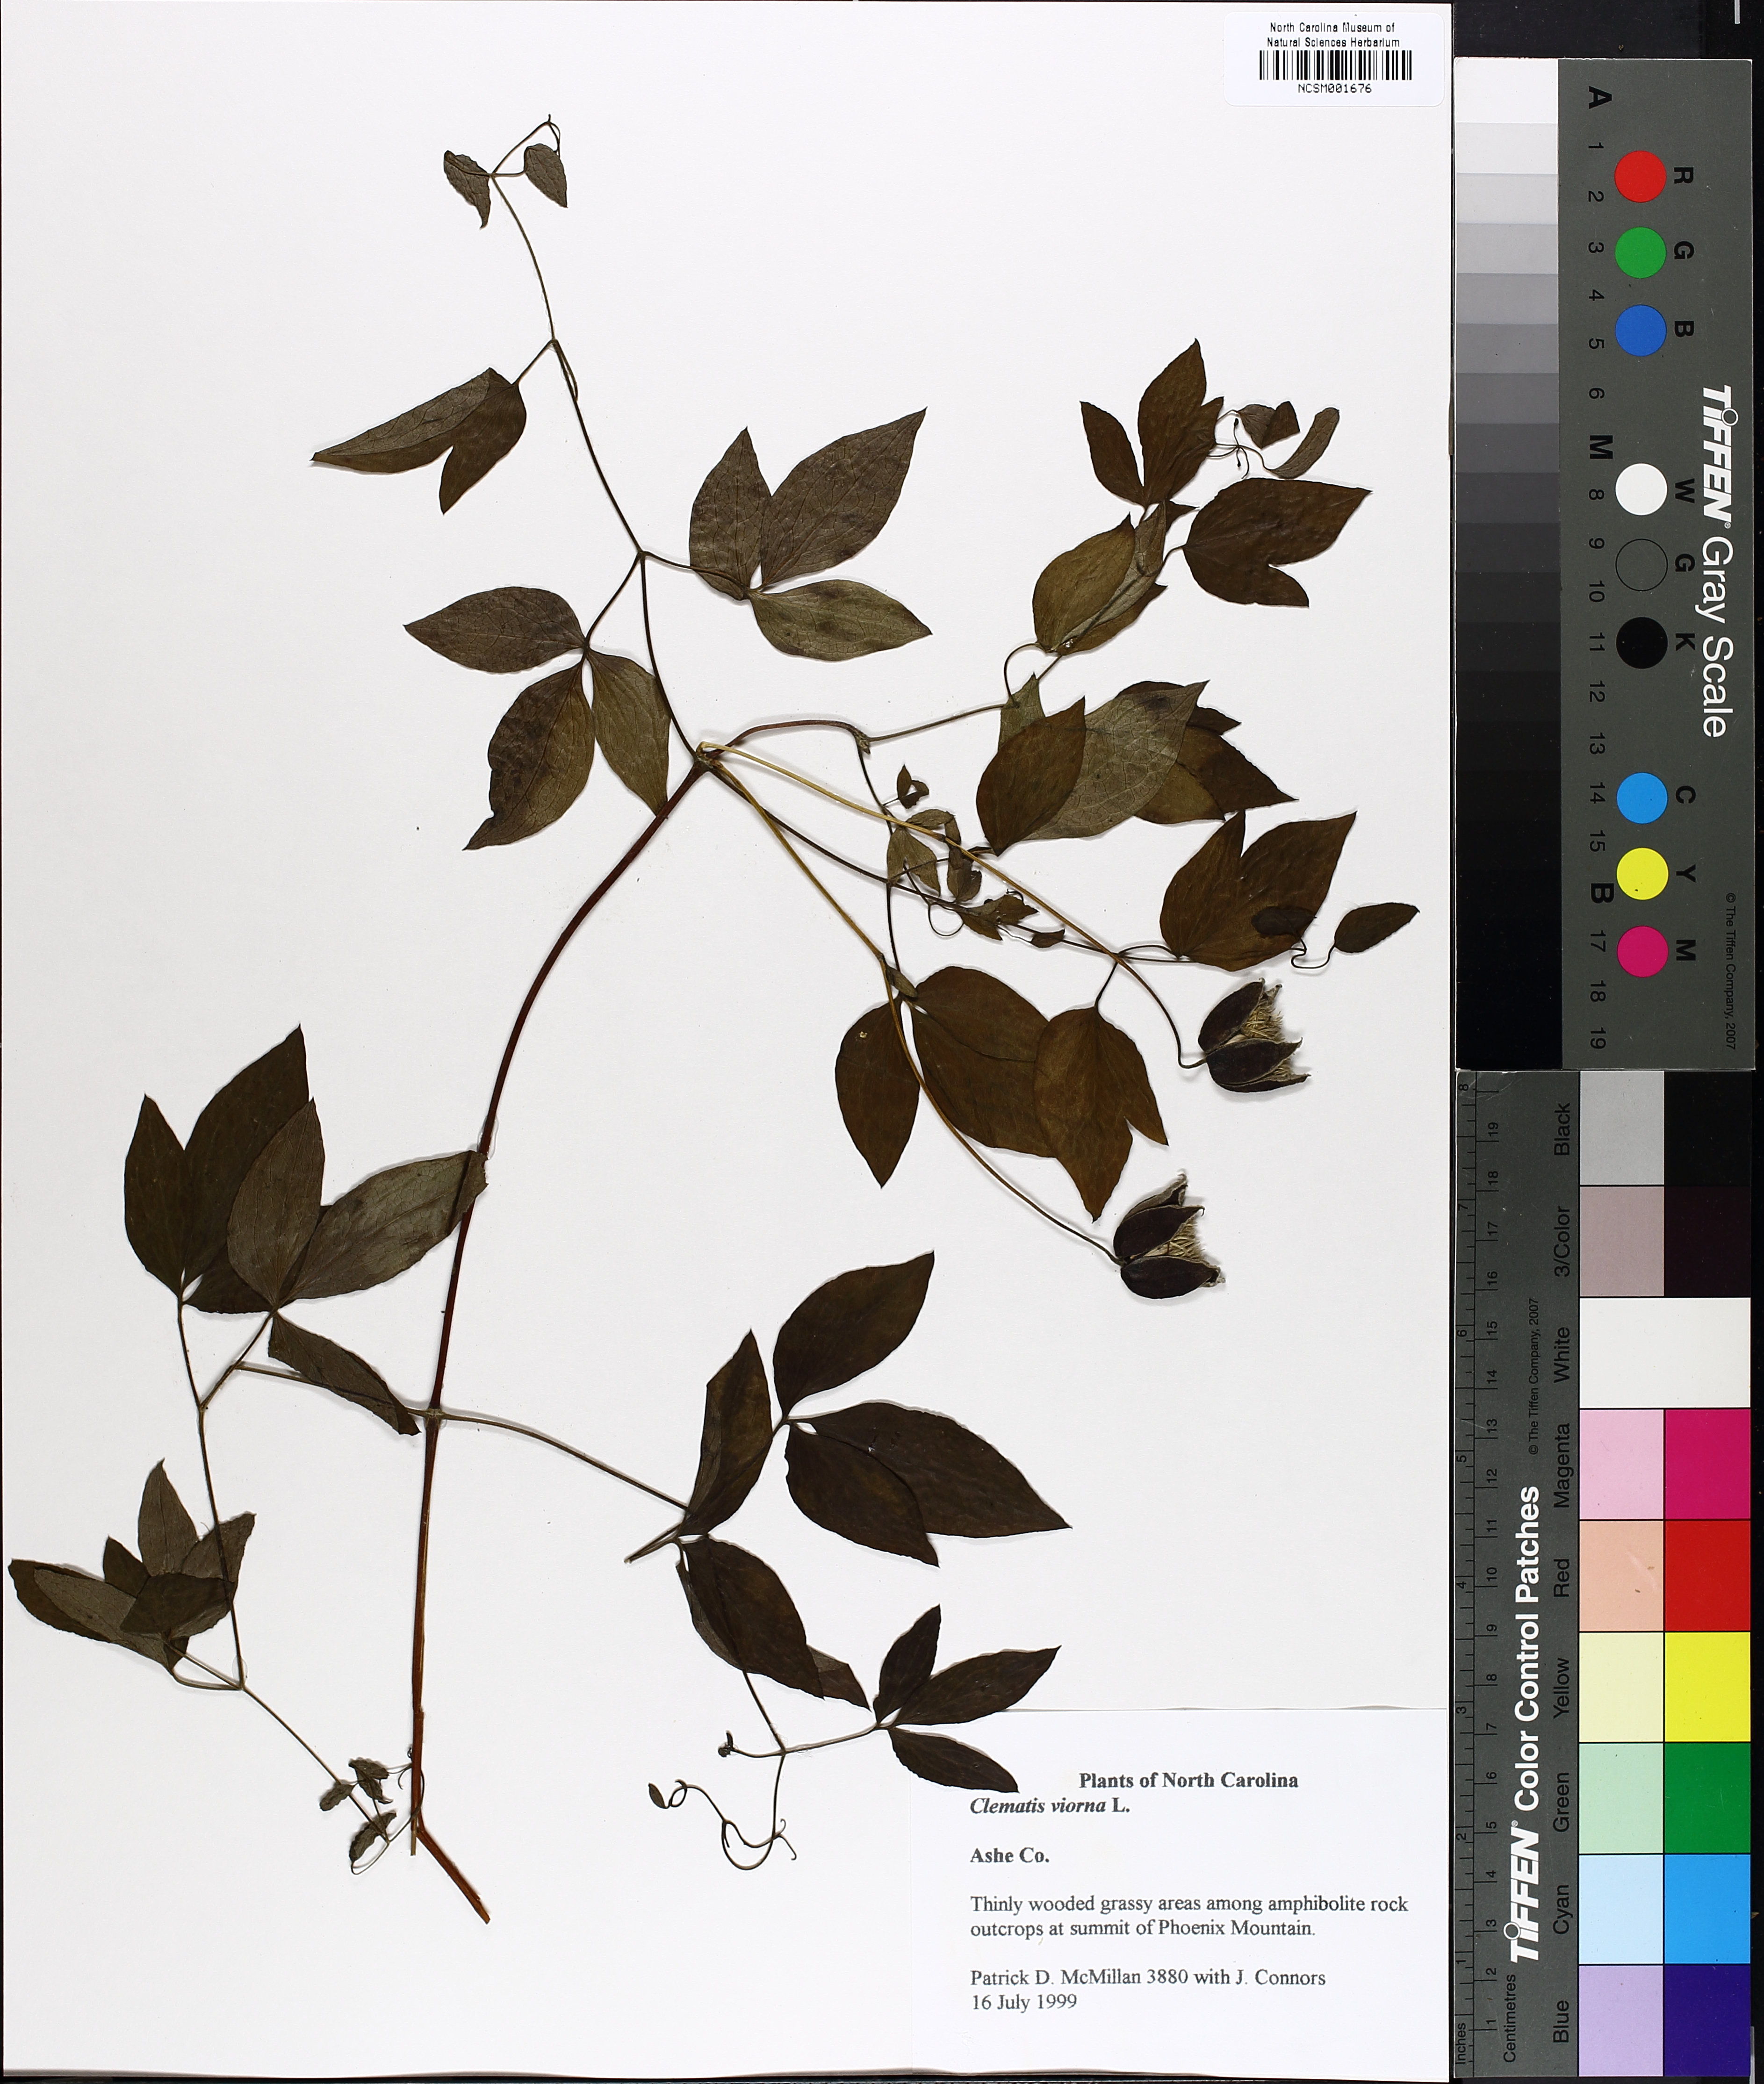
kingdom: Plantae
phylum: Tracheophyta
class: Magnoliopsida
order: Ranunculales
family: Ranunculaceae
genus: Clematis
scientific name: Clematis viorna
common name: Leather-flower
